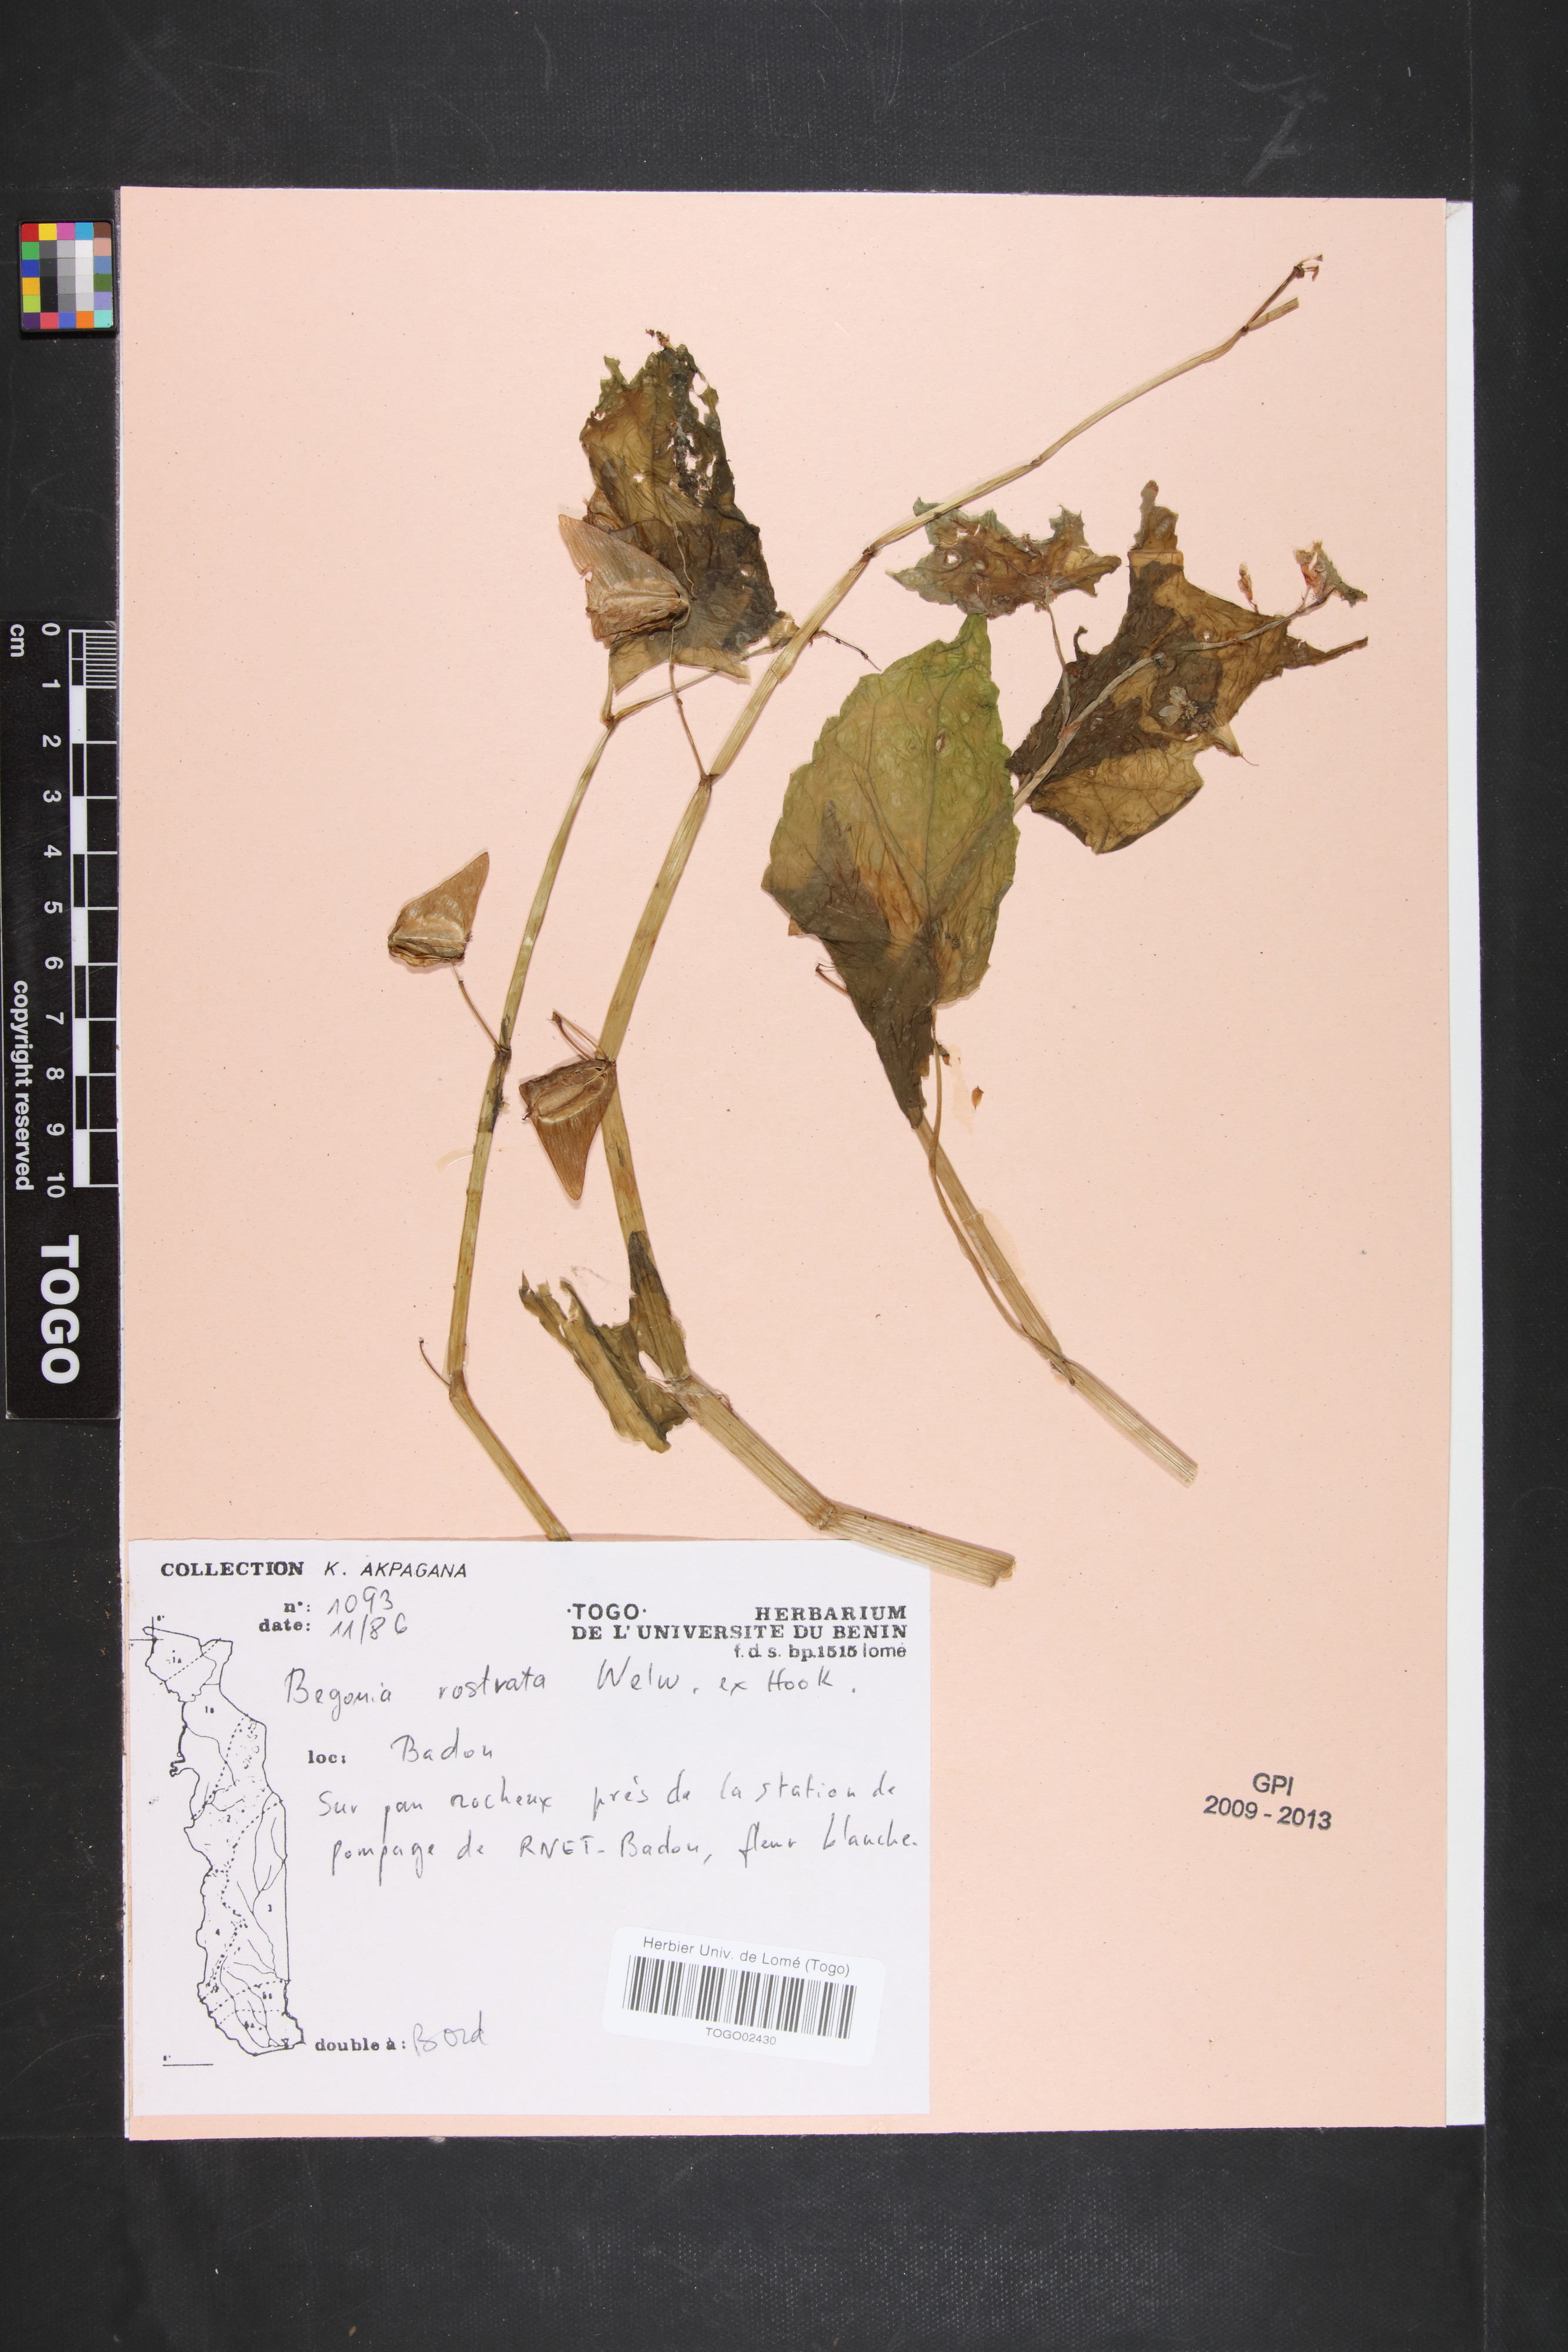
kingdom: Plantae
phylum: Tracheophyta
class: Magnoliopsida
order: Cucurbitales
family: Begoniaceae
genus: Begonia
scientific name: Begonia rostrata
